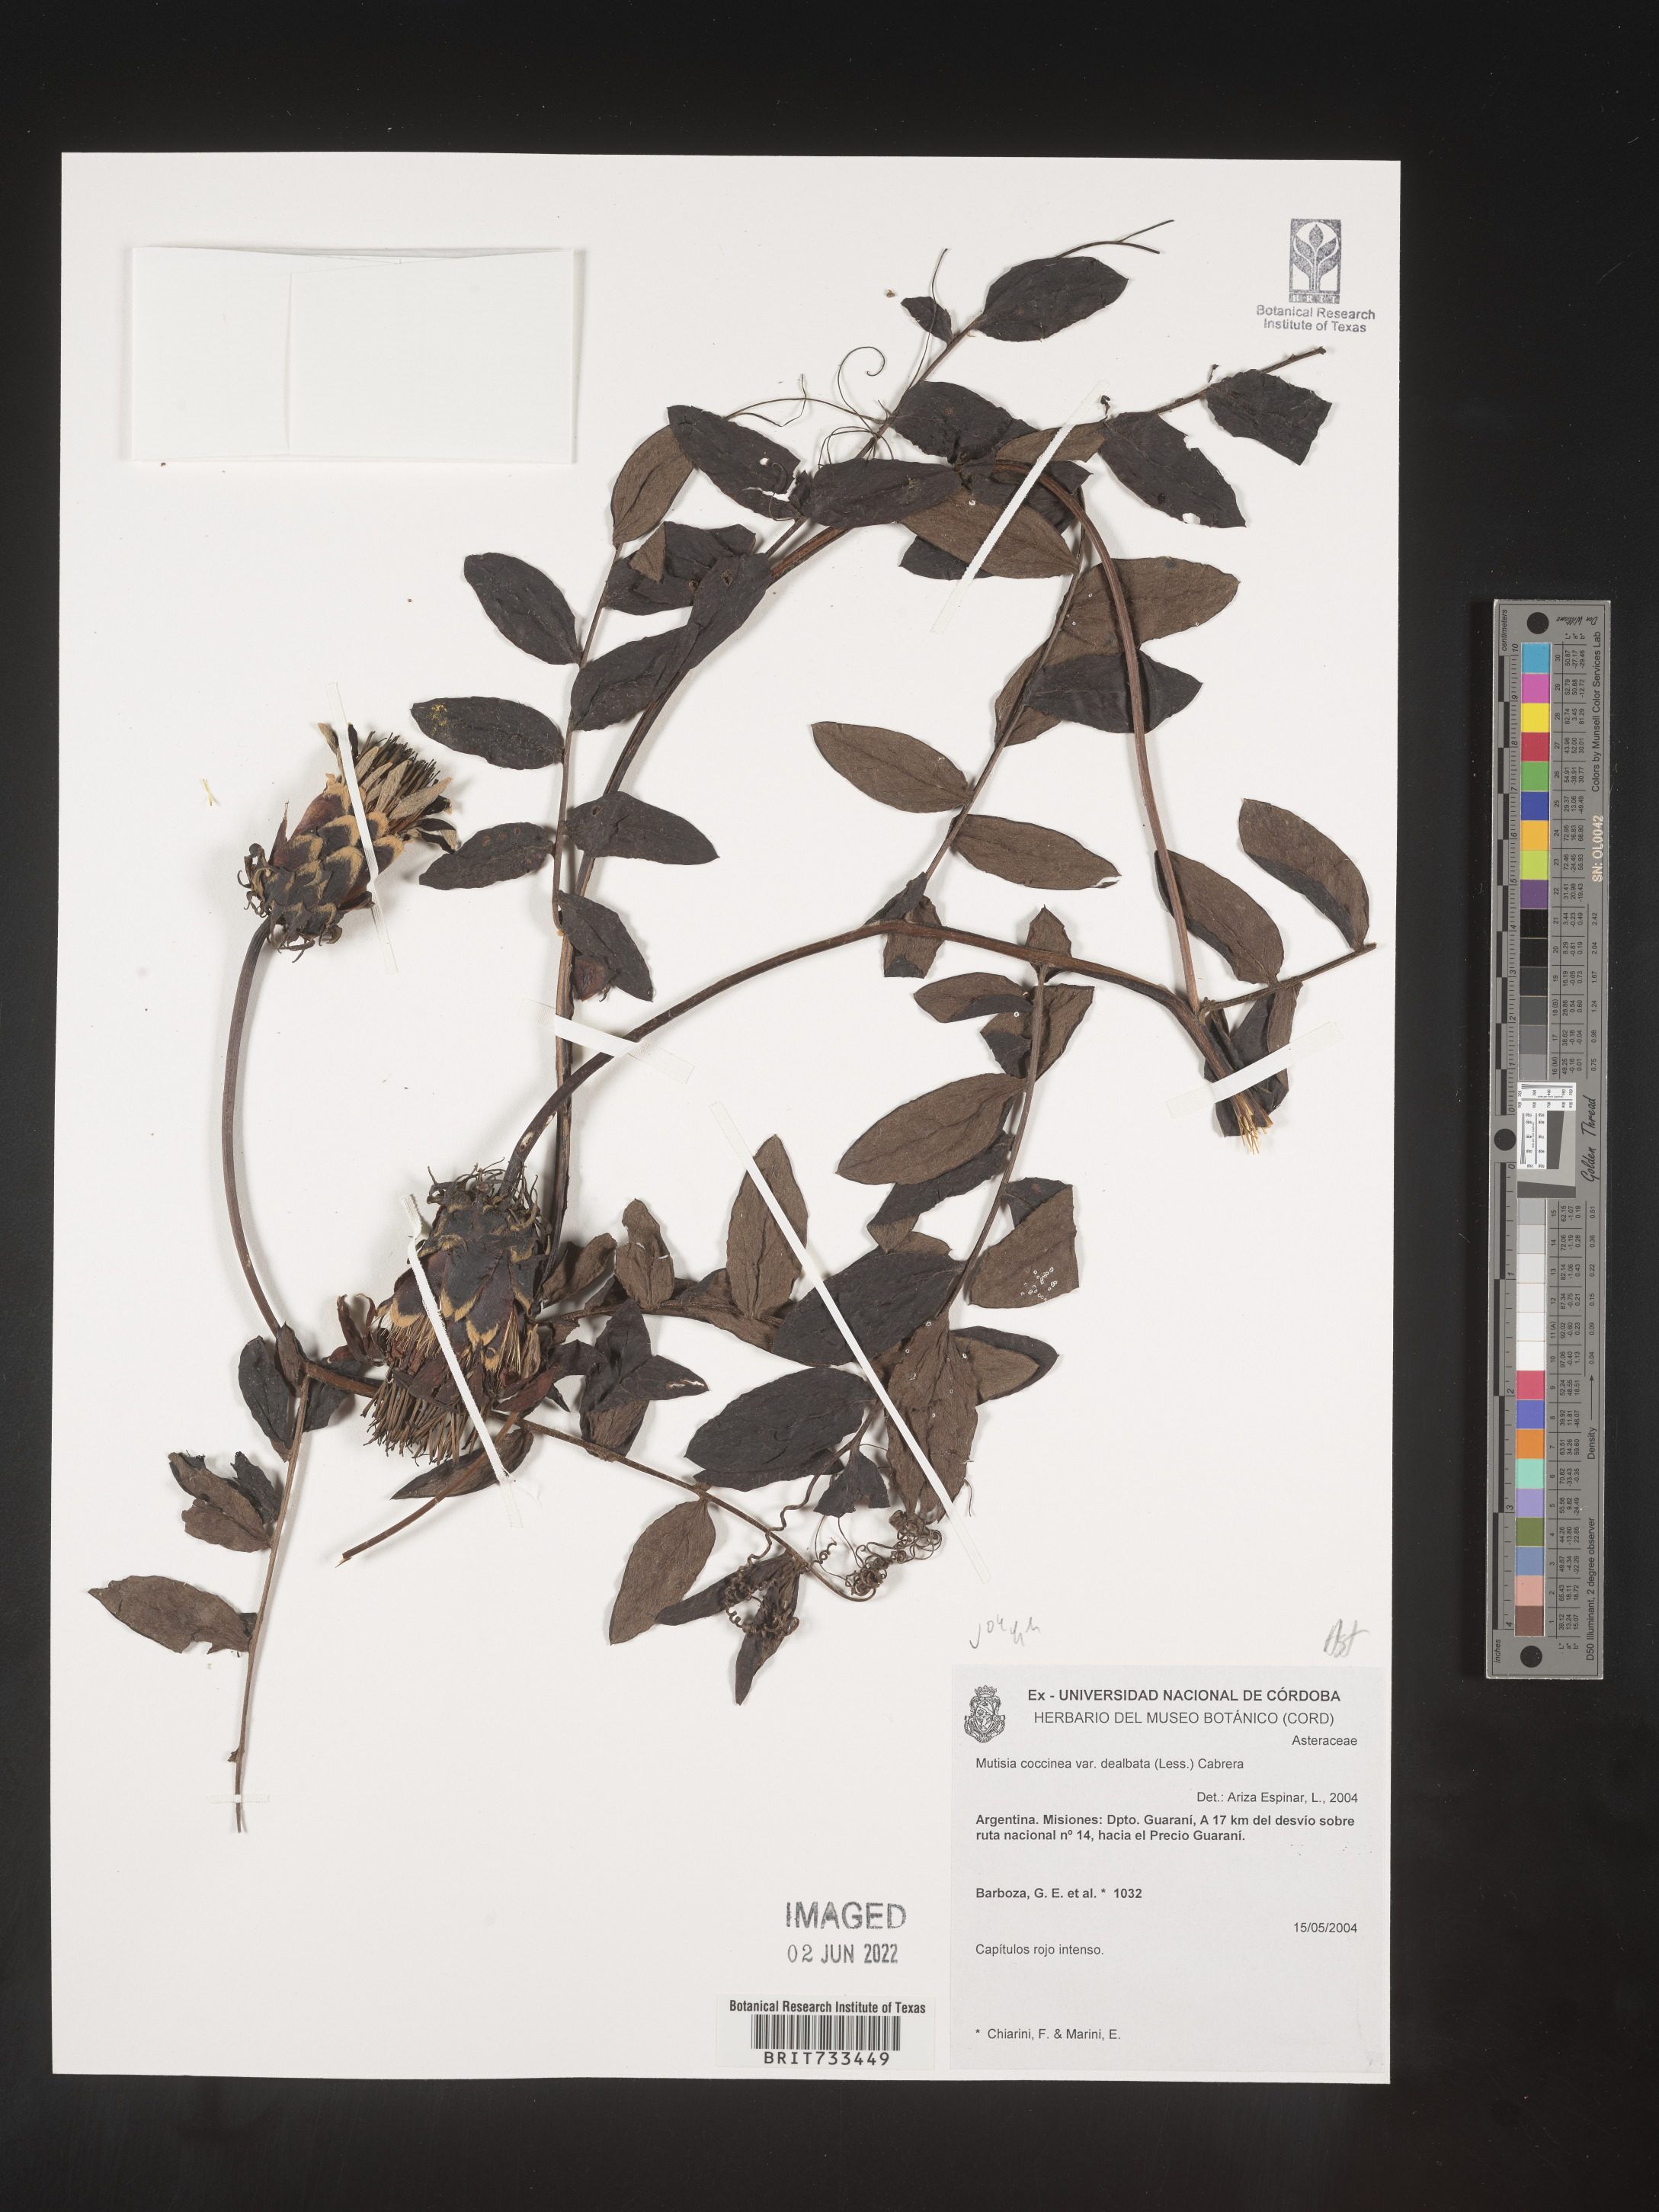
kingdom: Plantae
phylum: Tracheophyta
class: Magnoliopsida
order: Asterales
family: Asteraceae
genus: Mutisia
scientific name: Mutisia
